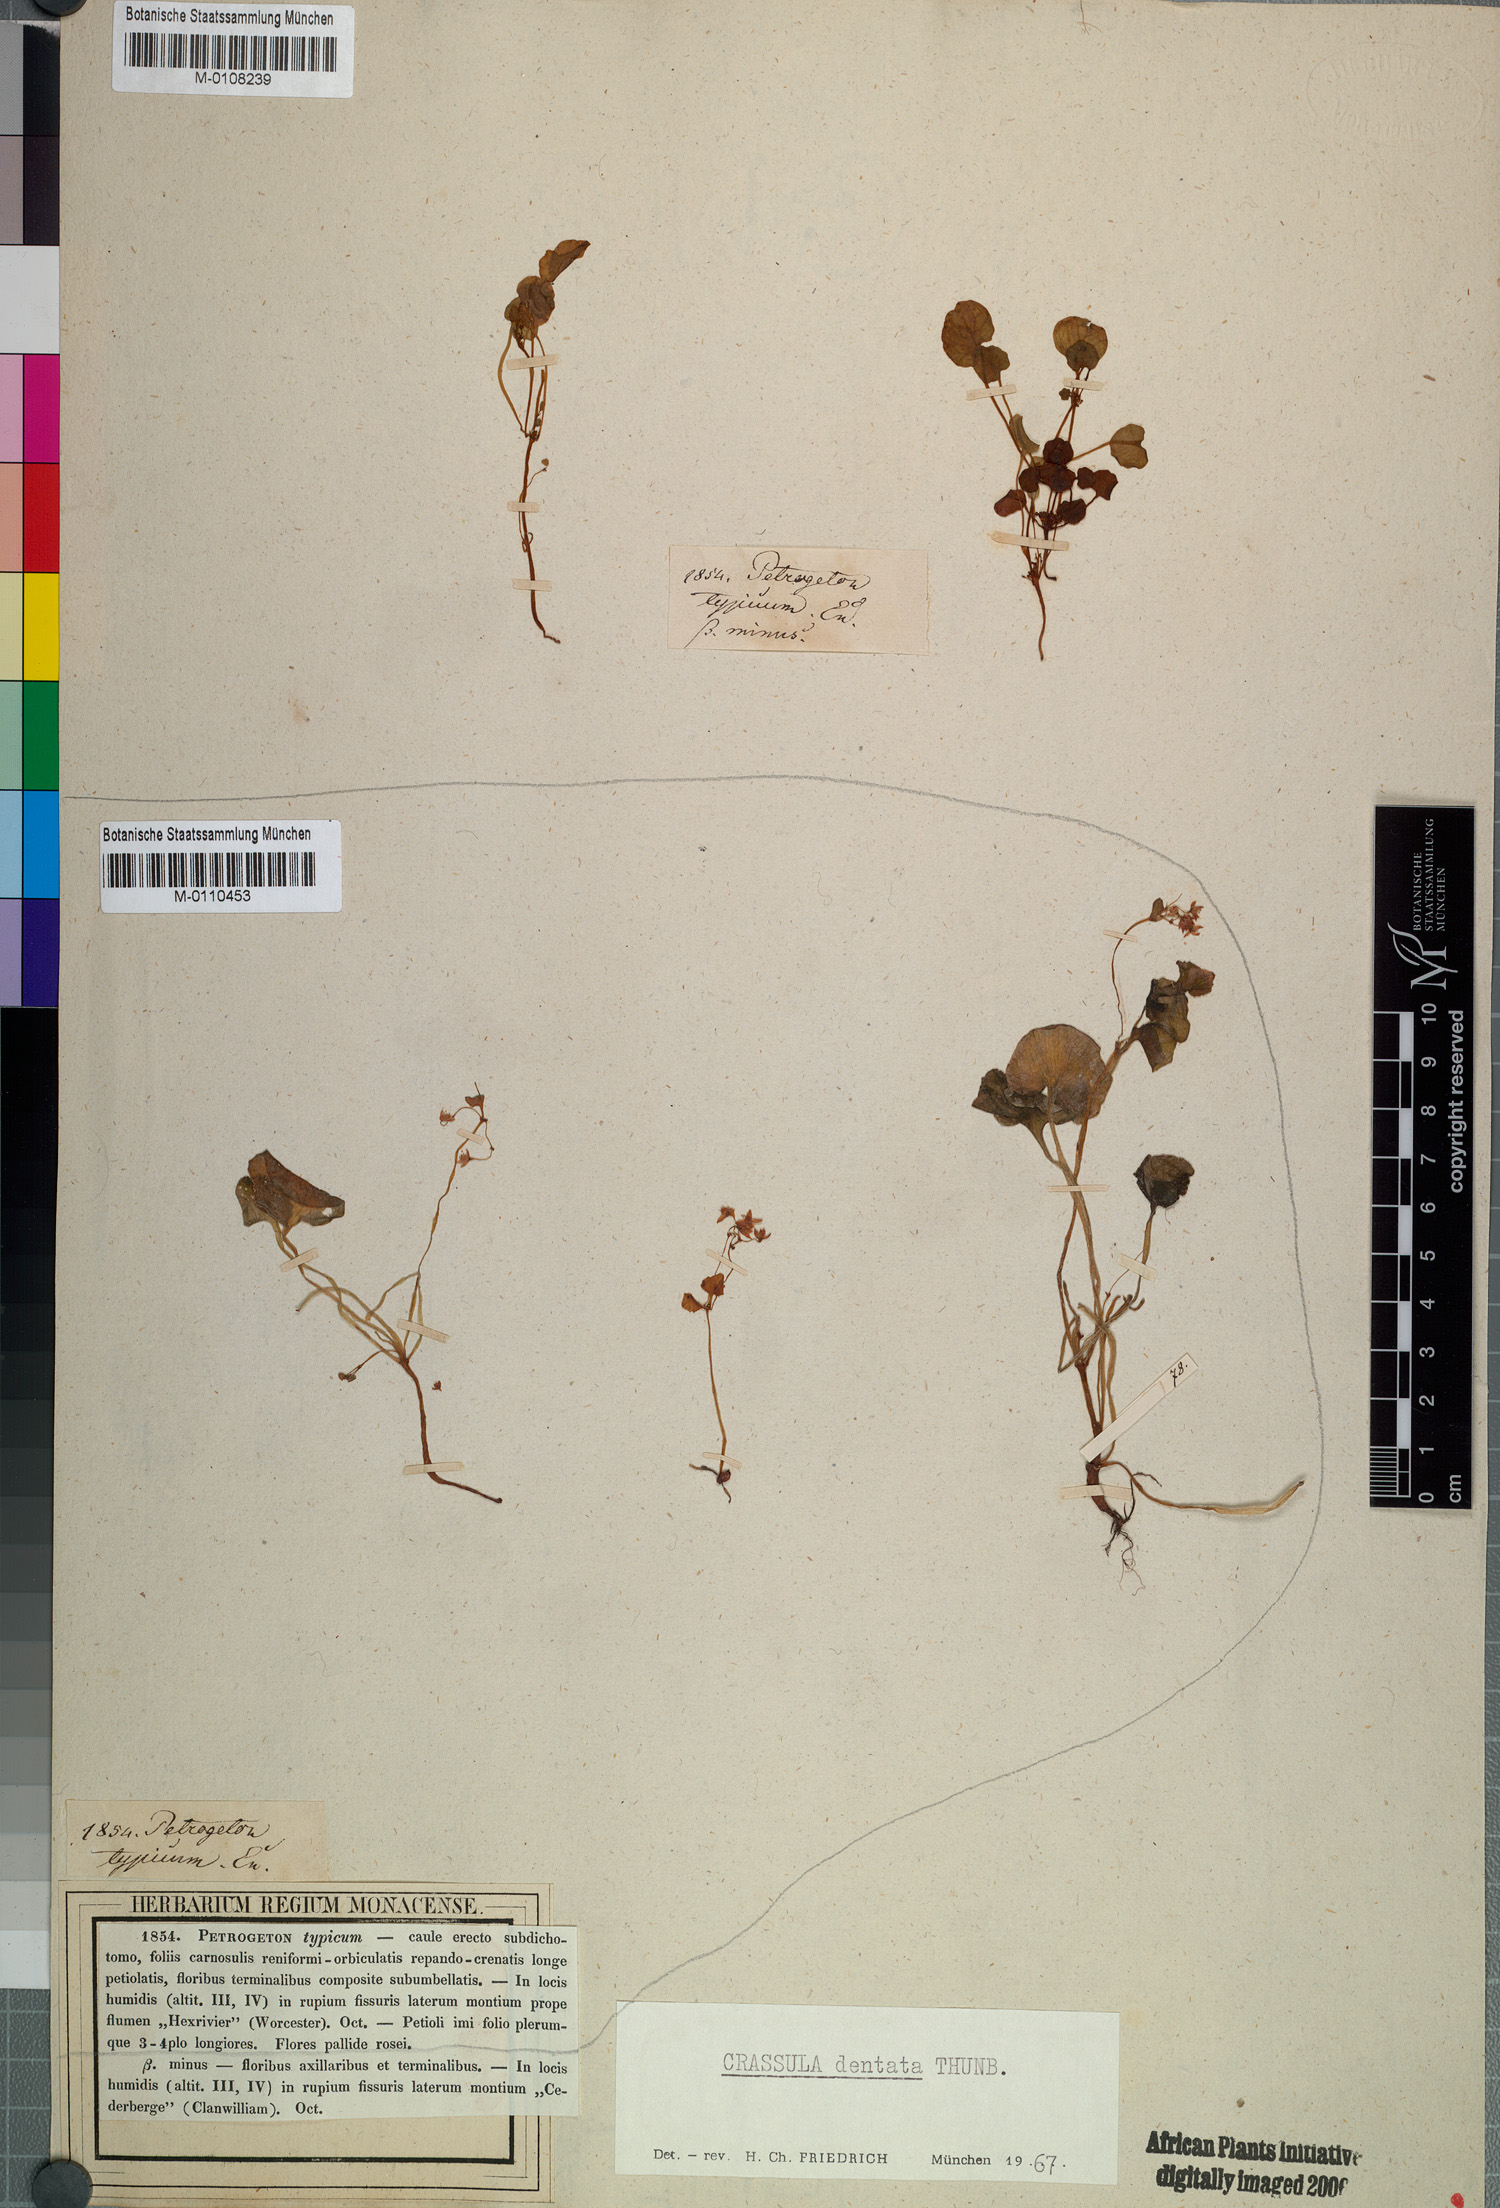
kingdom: Plantae
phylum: Tracheophyta
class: Magnoliopsida
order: Saxifragales
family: Crassulaceae
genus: Crassula
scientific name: Crassula dentata
